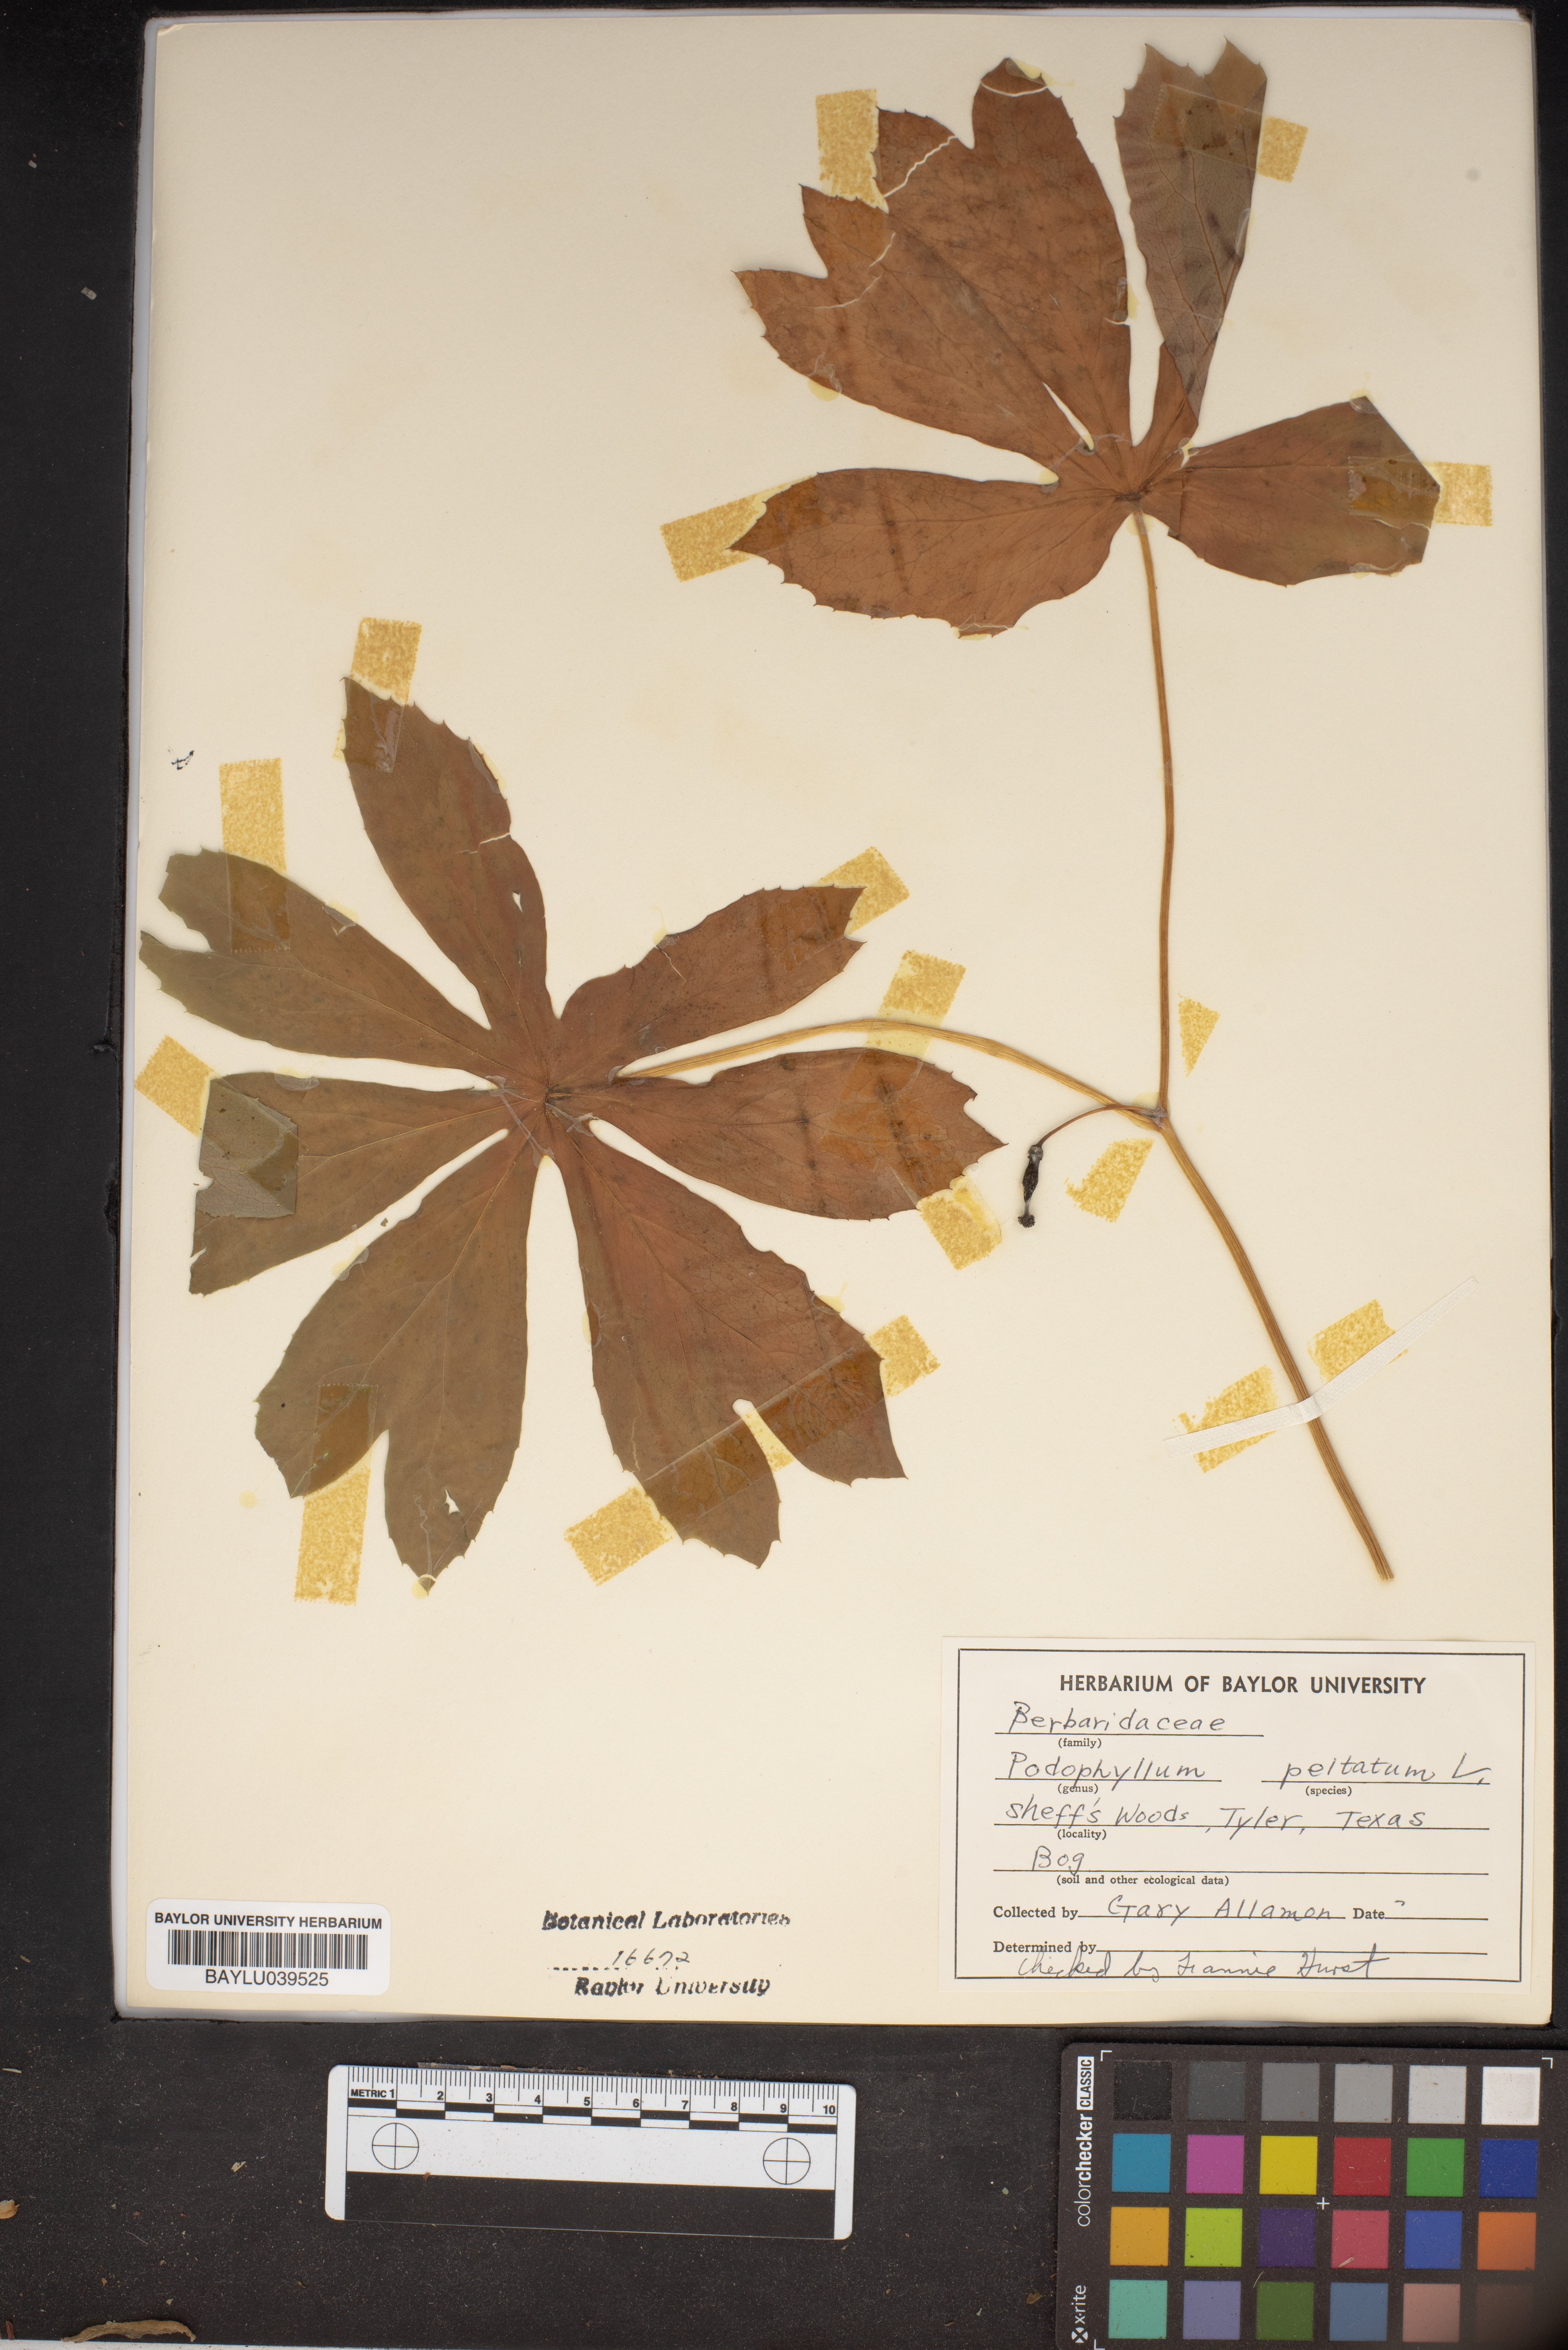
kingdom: Plantae
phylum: Tracheophyta
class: Magnoliopsida
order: Ranunculales
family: Berberidaceae
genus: Podophyllum
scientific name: Podophyllum peltatum
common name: Wild mandrake
